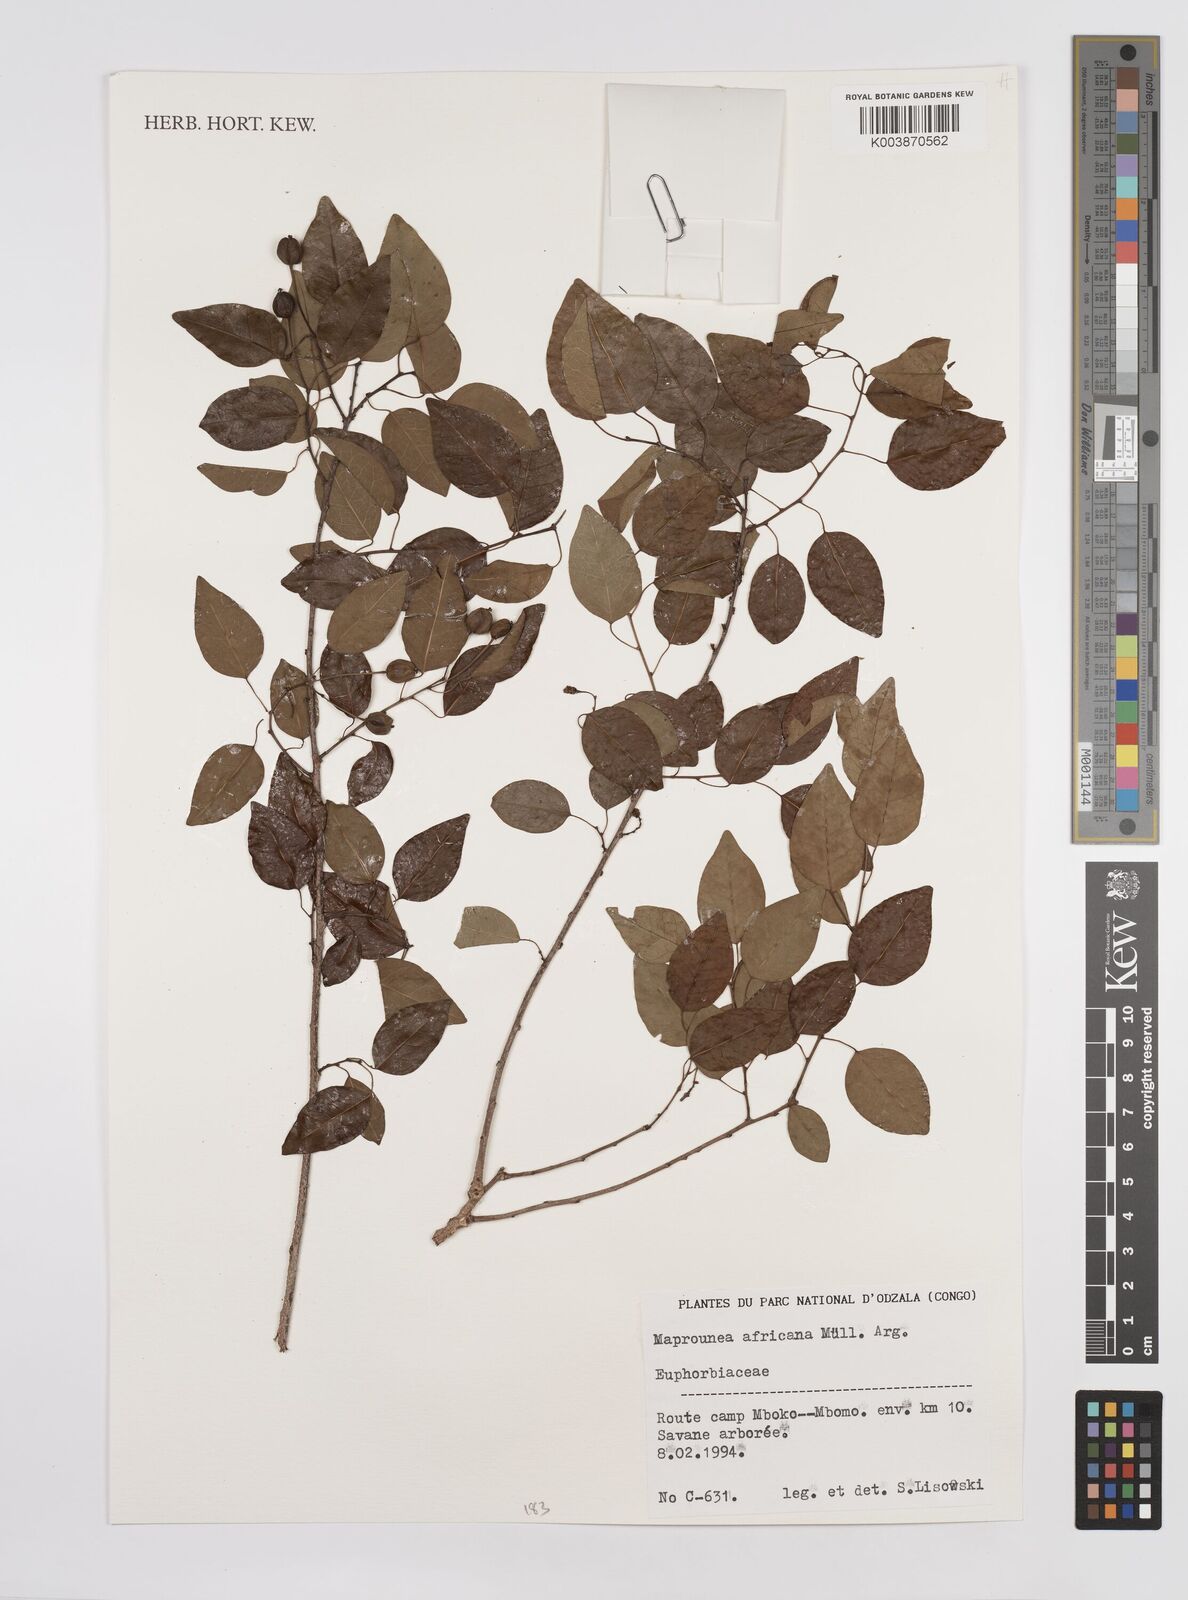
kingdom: Plantae
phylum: Tracheophyta
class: Magnoliopsida
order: Malpighiales
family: Euphorbiaceae
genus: Maprounea
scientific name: Maprounea africana
